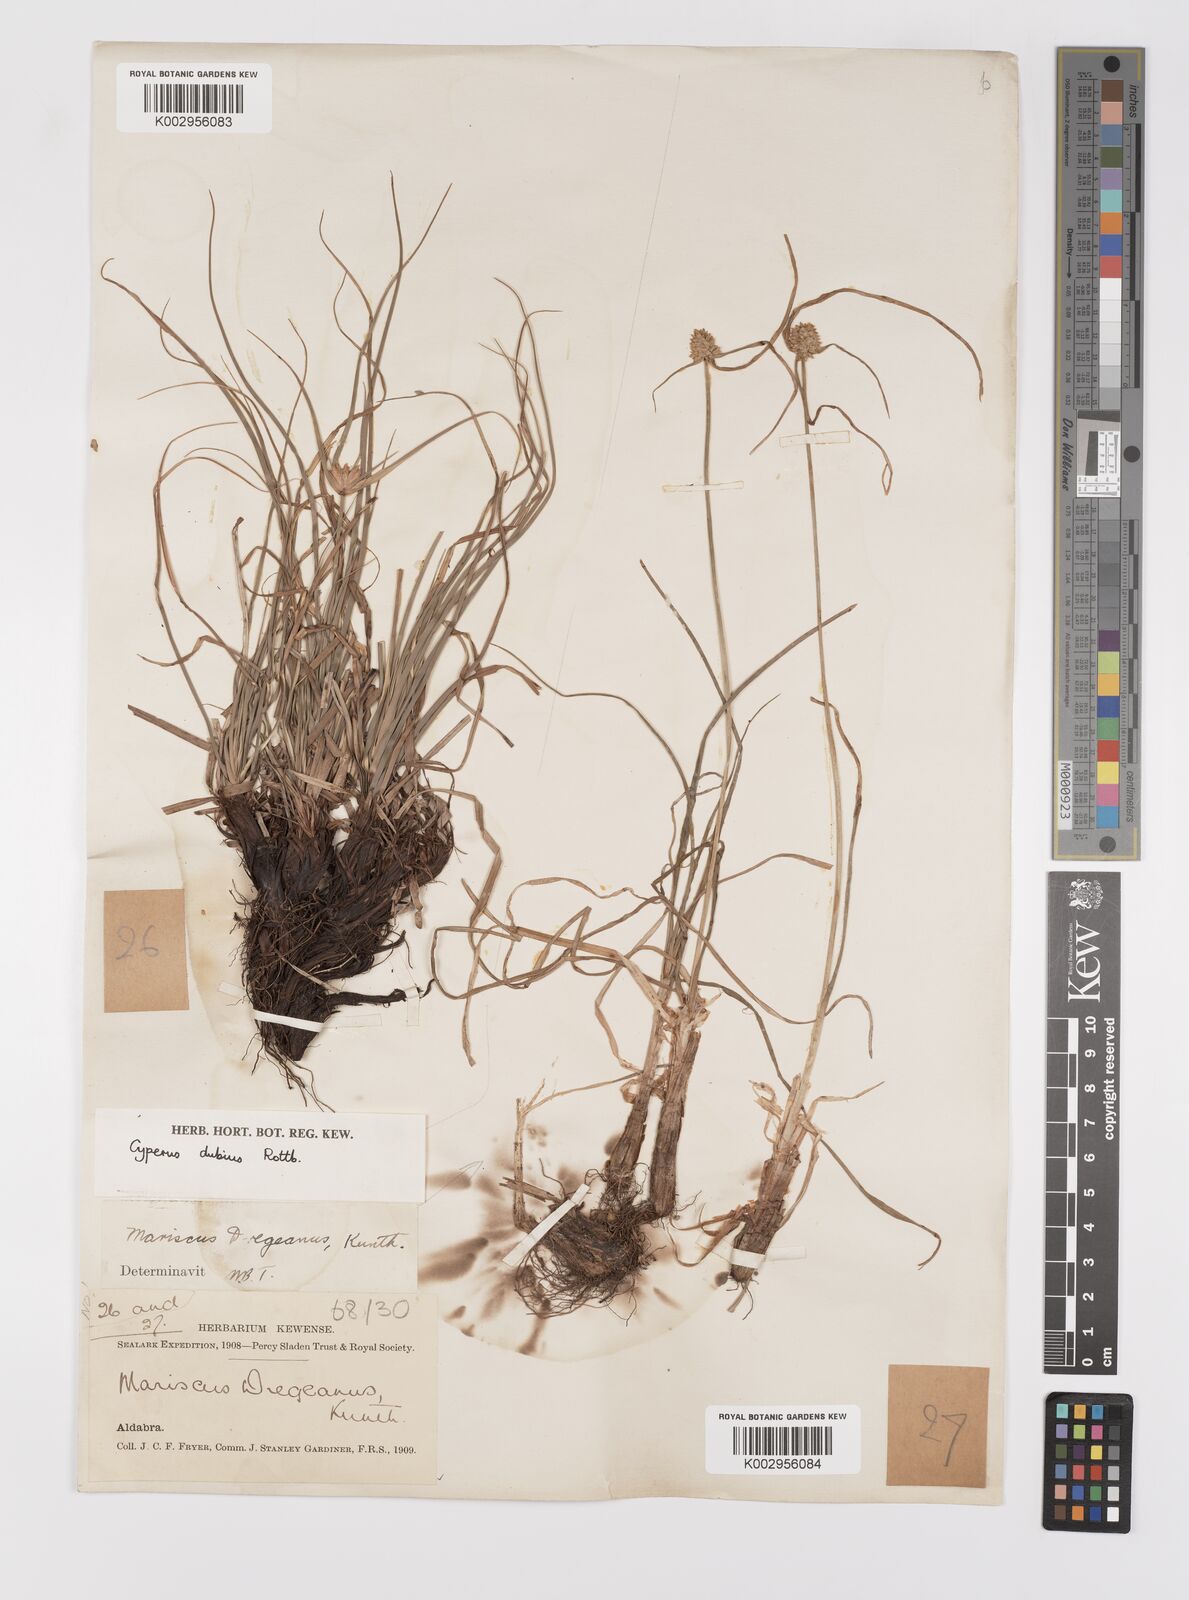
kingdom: Plantae
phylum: Tracheophyta
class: Liliopsida
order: Poales
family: Cyperaceae
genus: Cyperus
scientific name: Cyperus dubius
